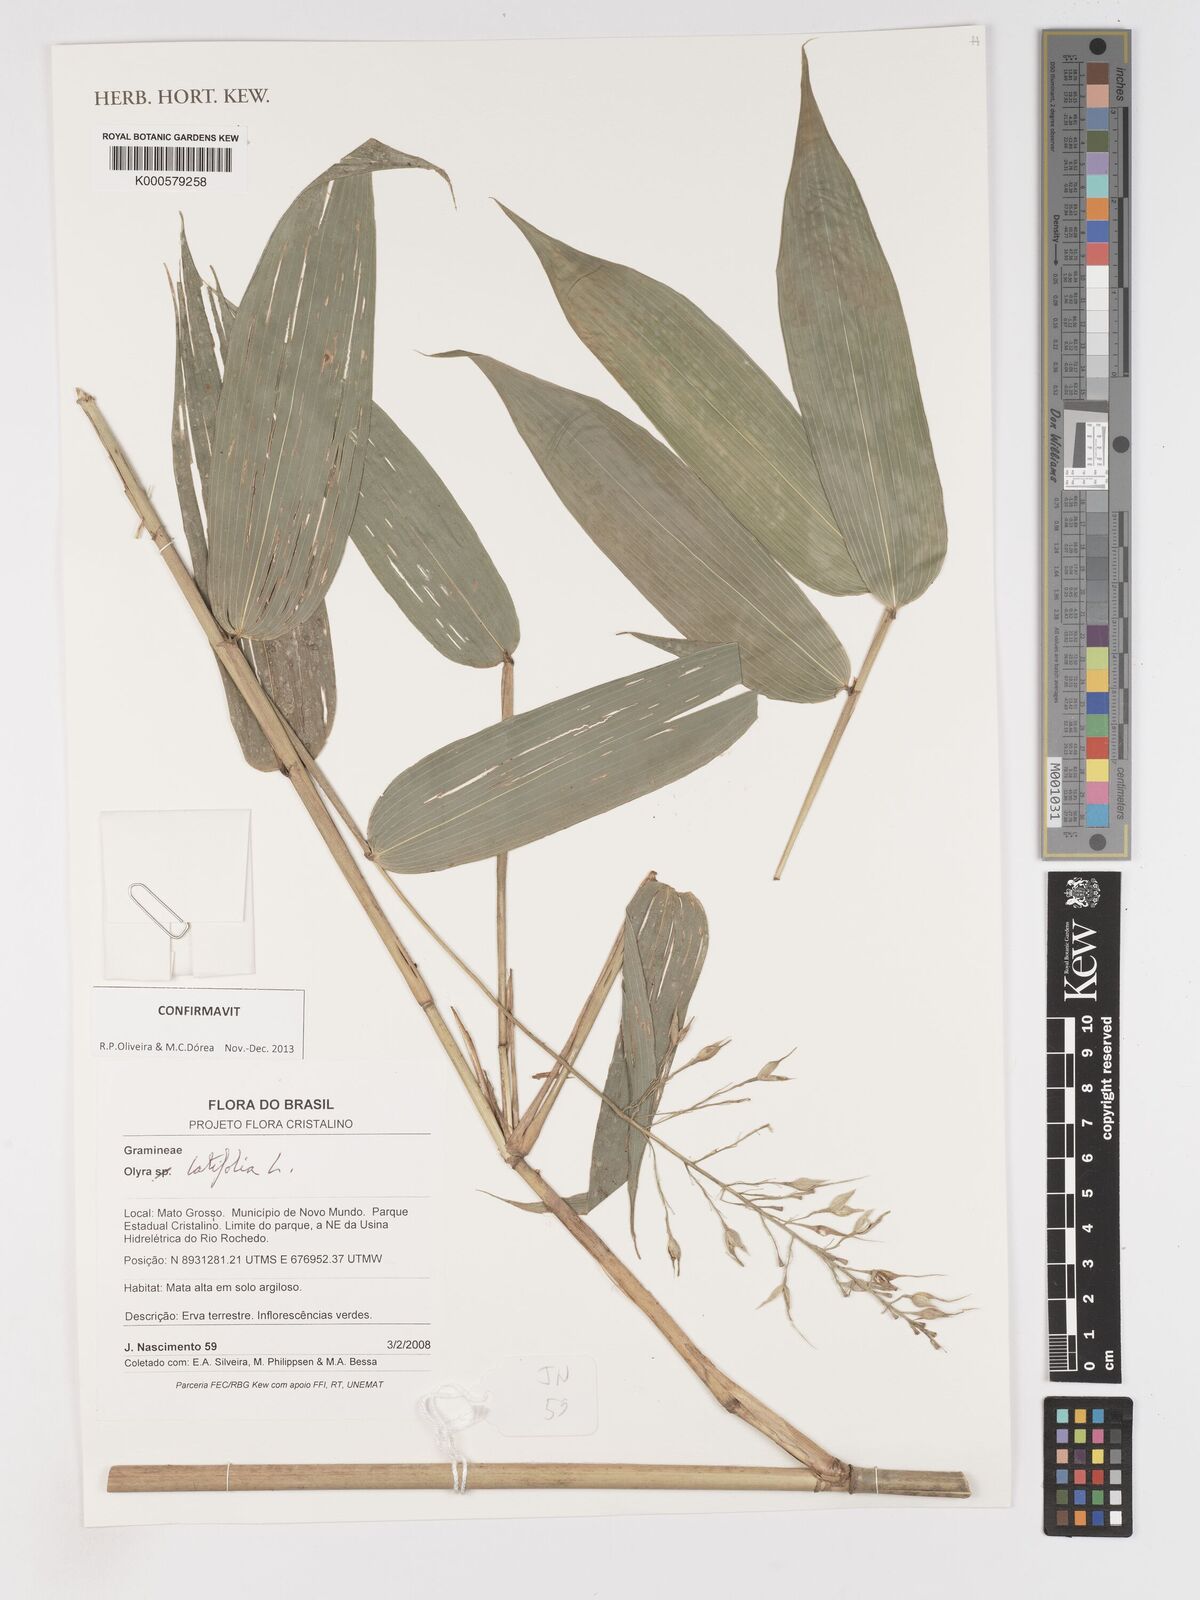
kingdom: Plantae
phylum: Tracheophyta
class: Liliopsida
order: Poales
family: Poaceae
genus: Olyra
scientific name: Olyra latifolia
